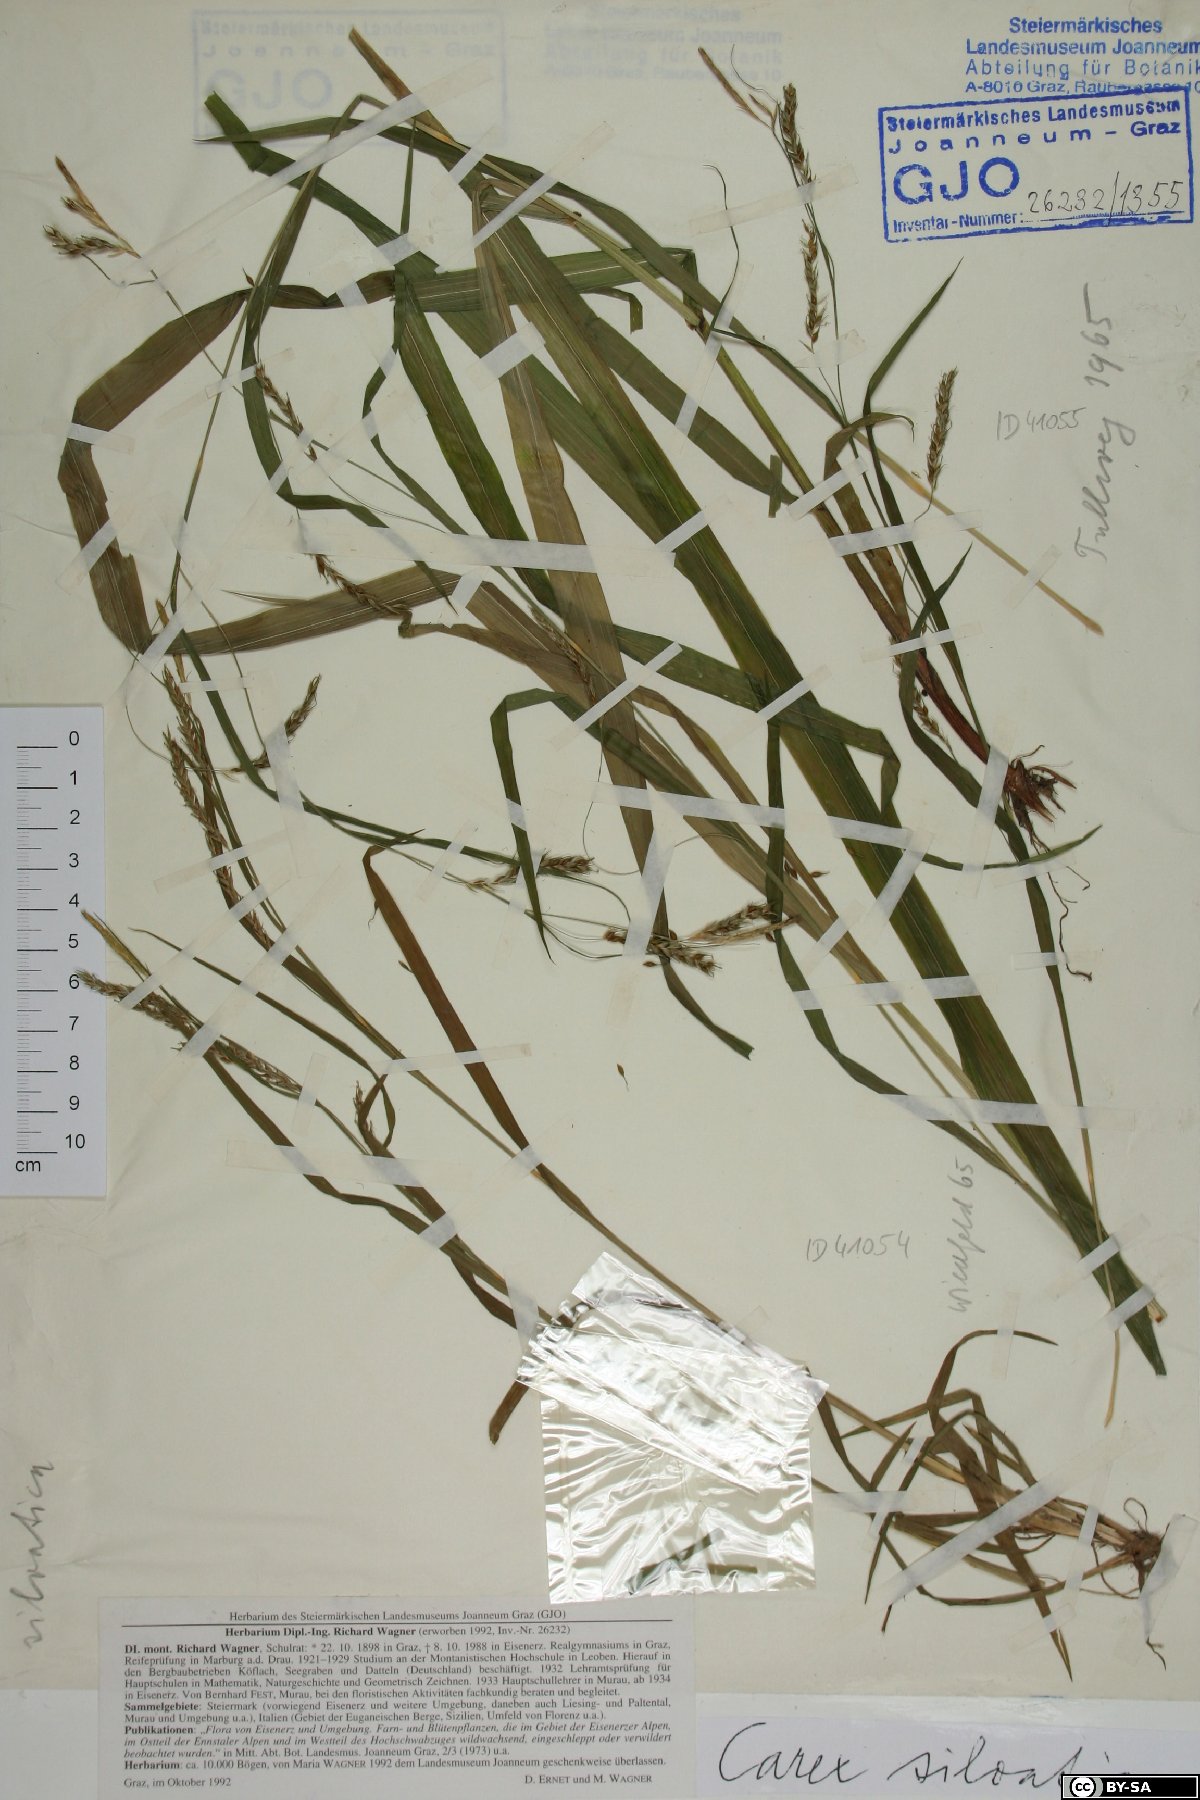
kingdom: Plantae
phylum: Tracheophyta
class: Liliopsida
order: Poales
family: Cyperaceae
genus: Carex
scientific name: Carex sylvatica
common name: Wood-sedge
